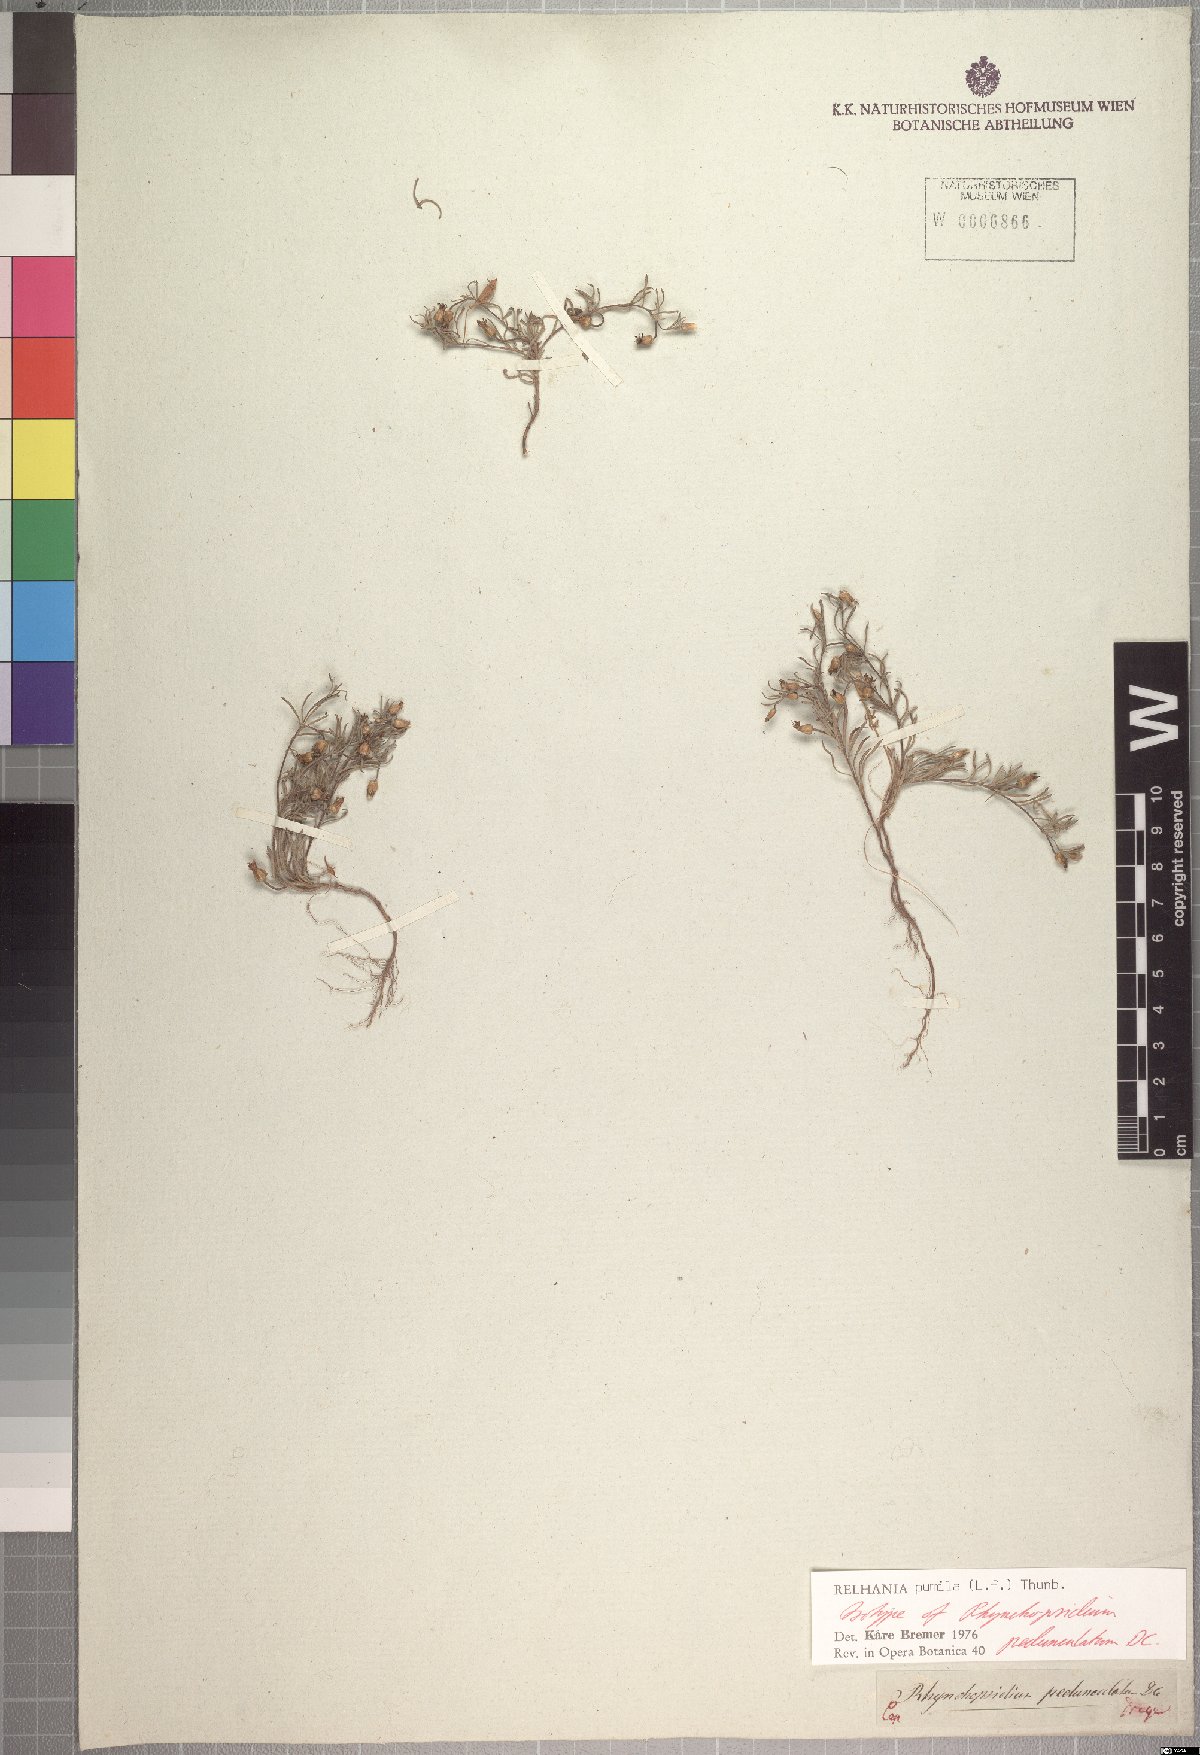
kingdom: Plantae
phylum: Tracheophyta
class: Magnoliopsida
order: Asterales
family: Asteraceae
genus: Rhynchopsidium
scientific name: Rhynchopsidium pumilum
